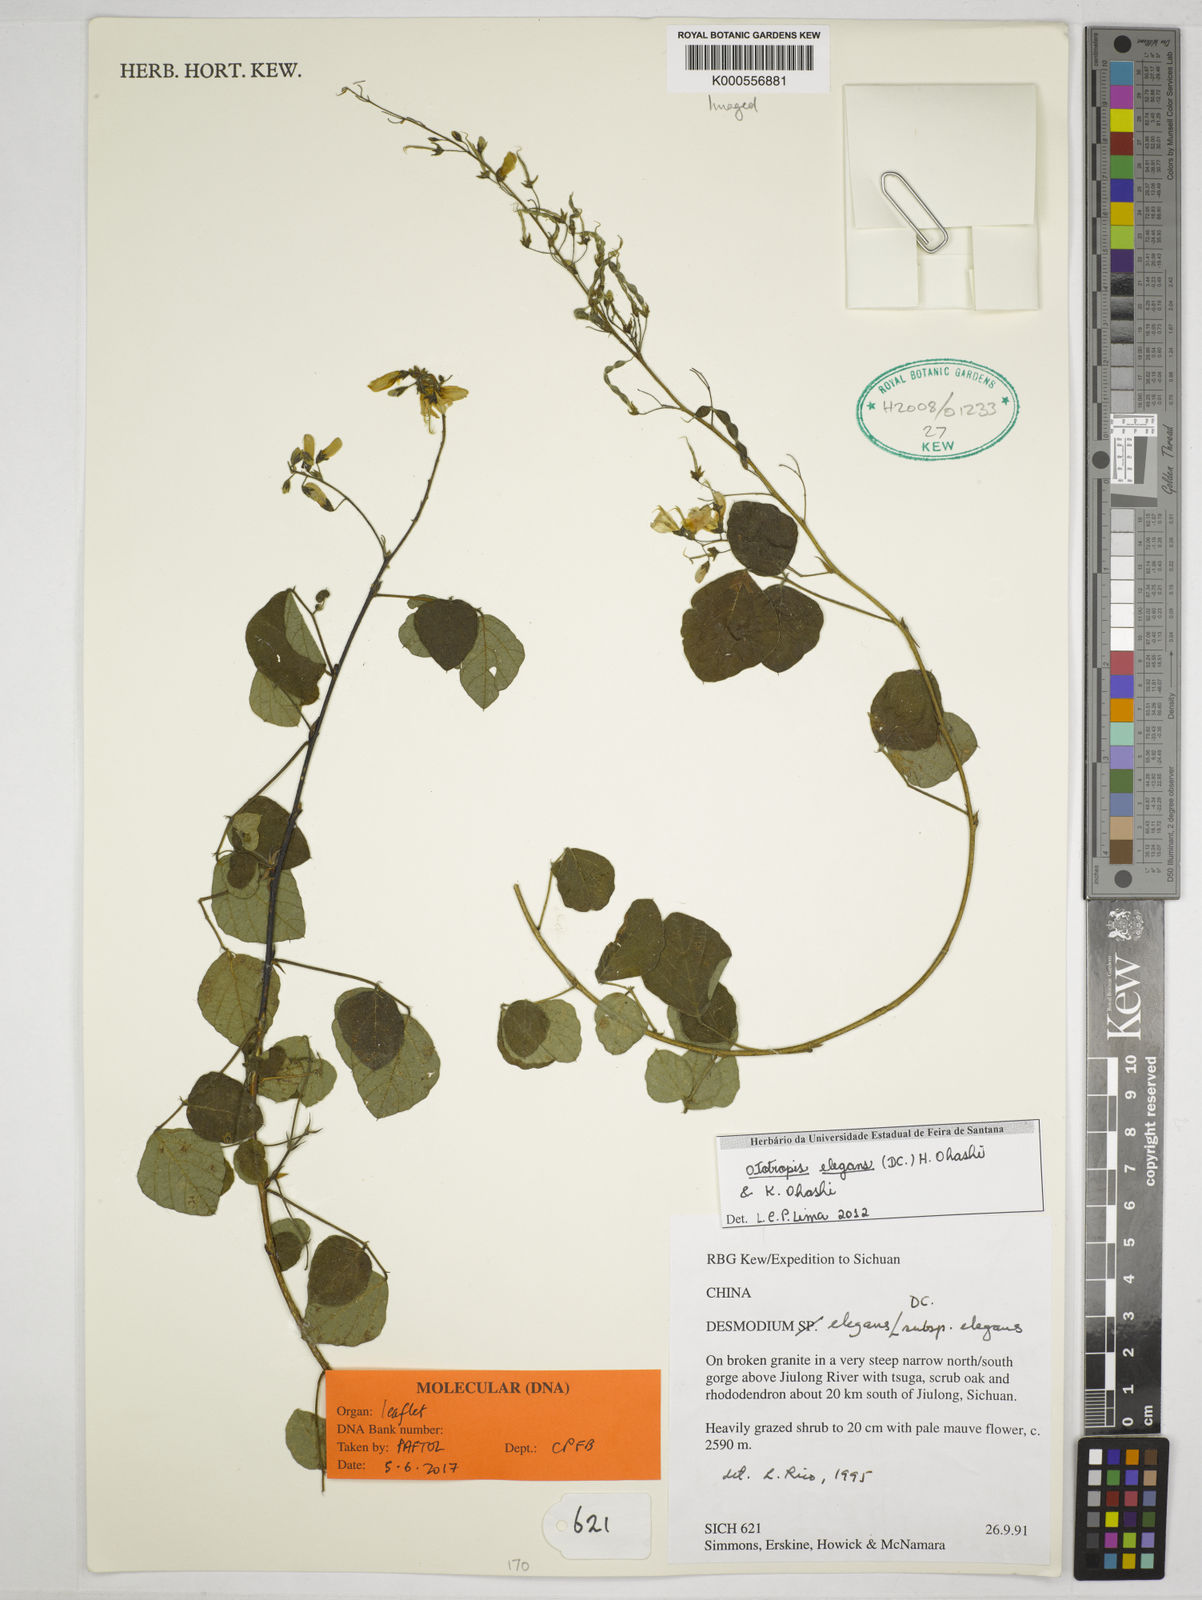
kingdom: Plantae
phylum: Tracheophyta
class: Magnoliopsida
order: Fabales
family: Fabaceae
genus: Sunhangia
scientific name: Sunhangia elegans
